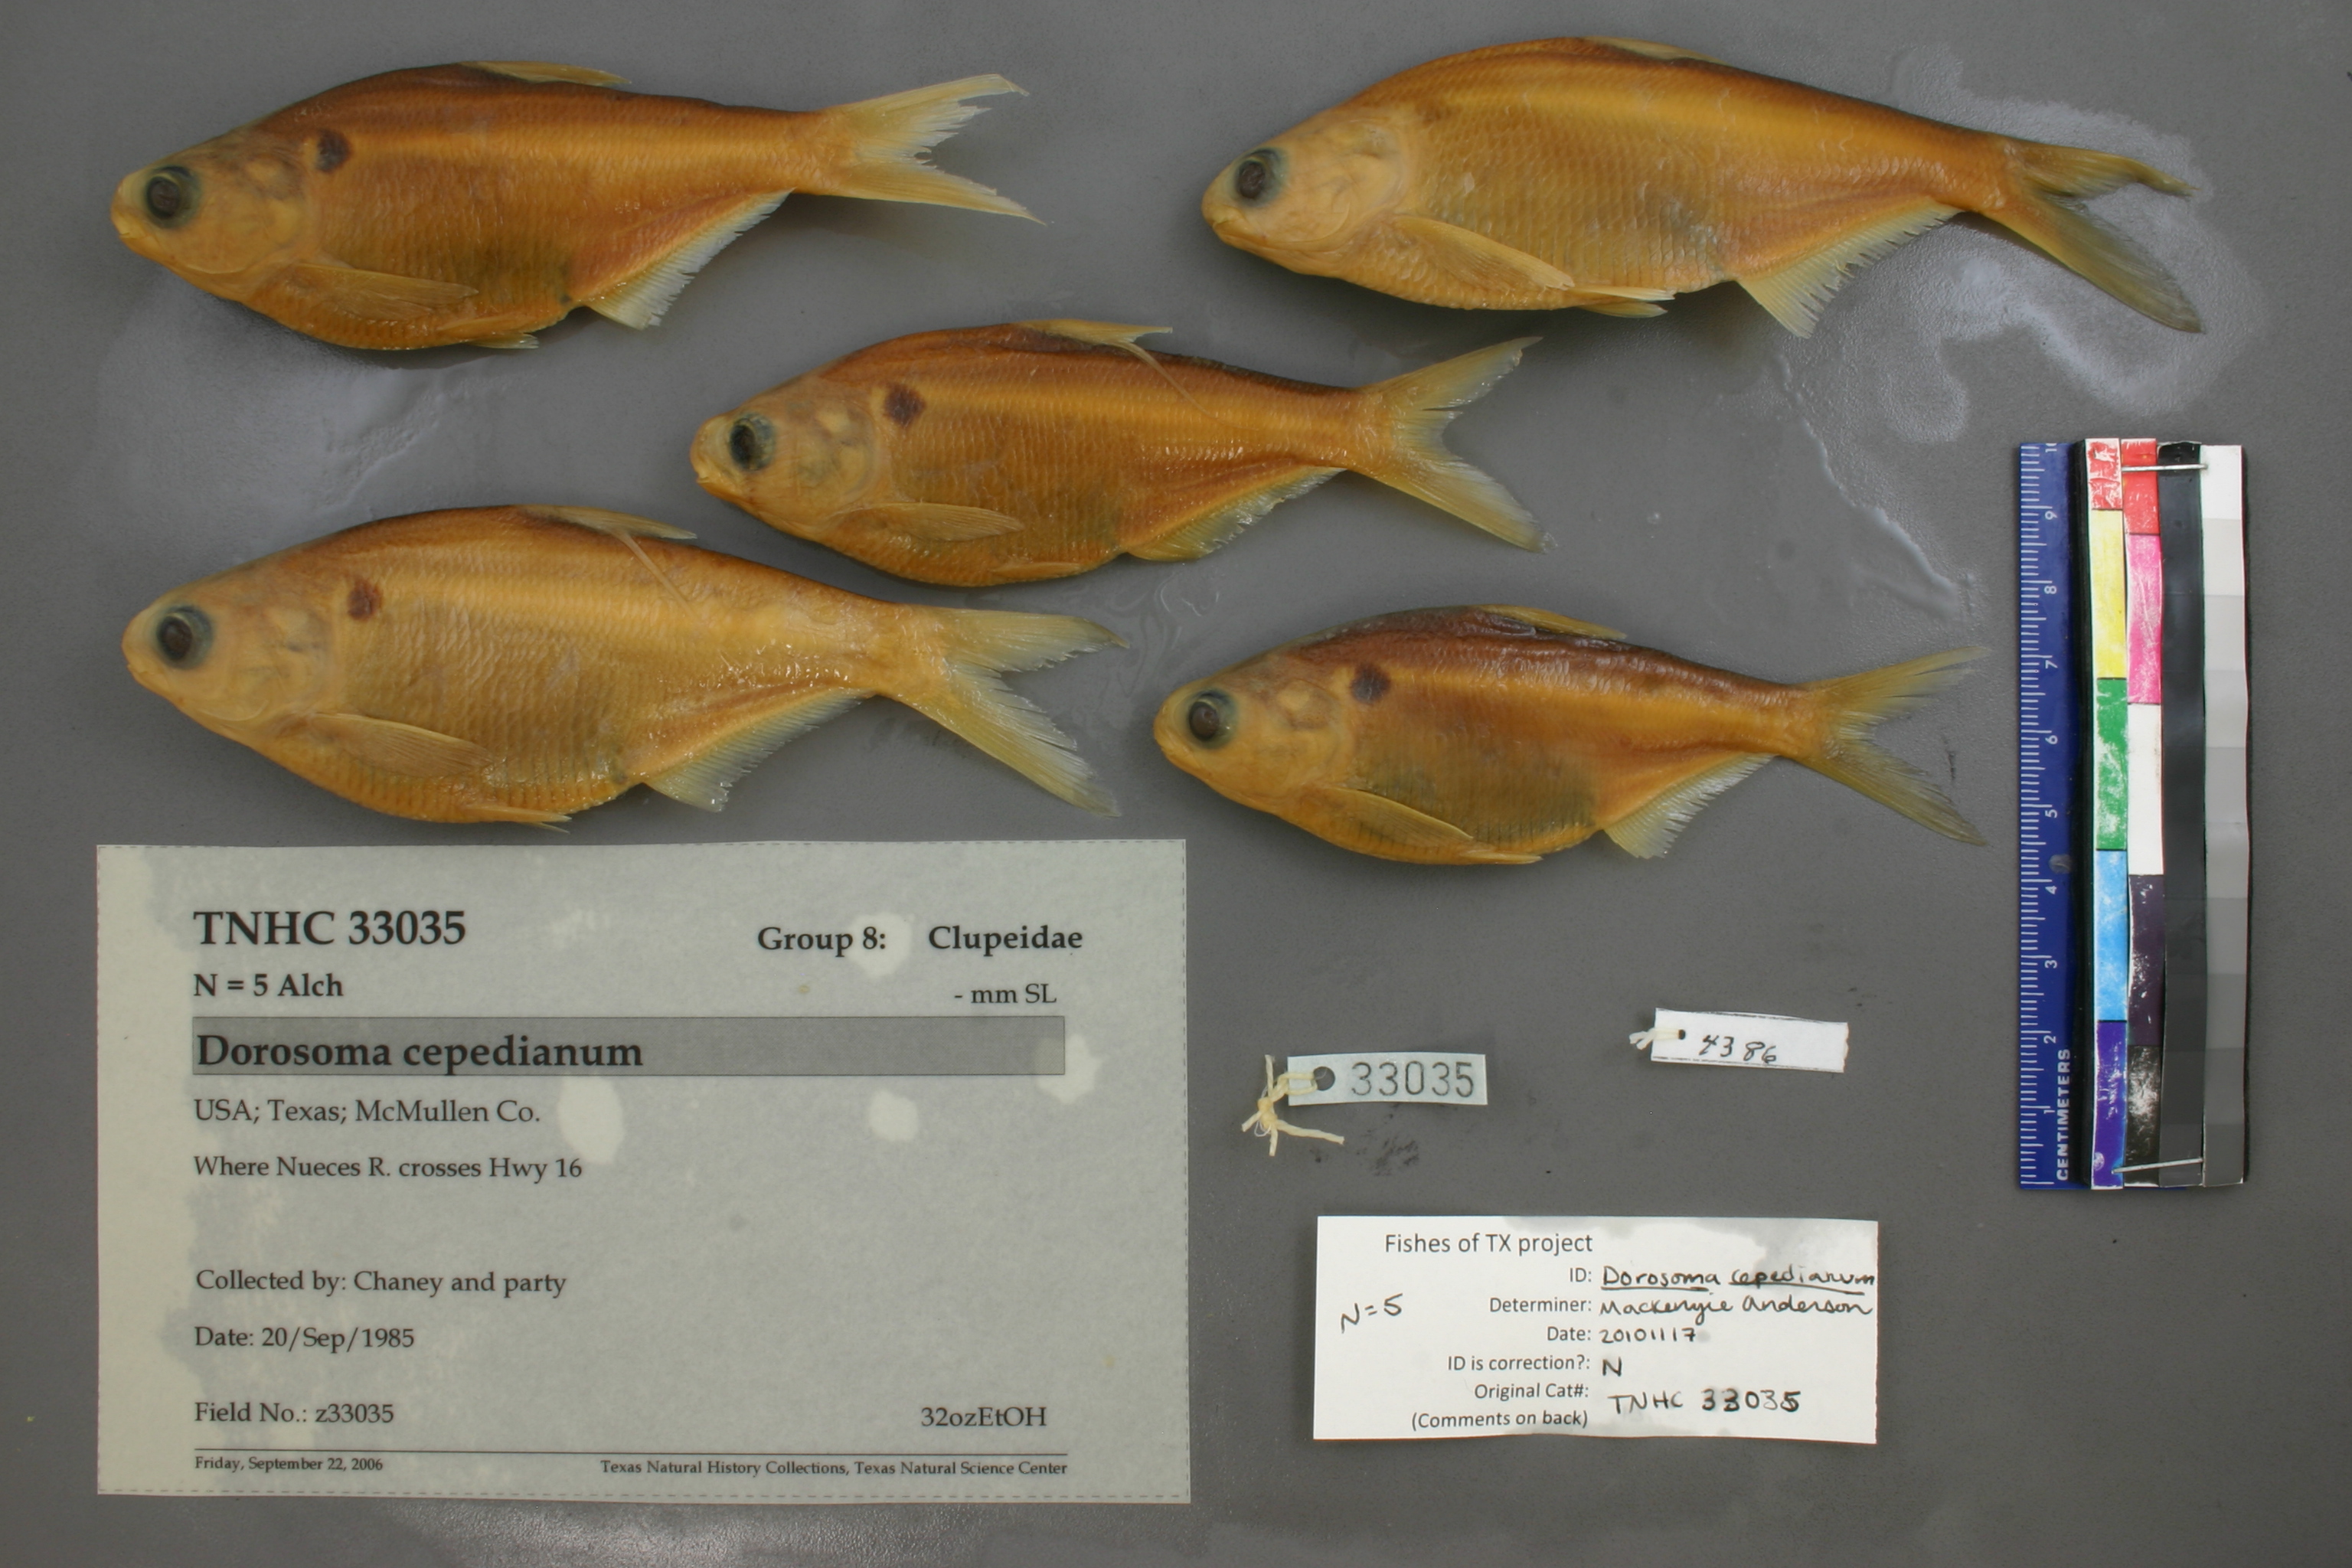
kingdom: Animalia
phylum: Chordata
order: Clupeiformes
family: Clupeidae
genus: Dorosoma
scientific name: Dorosoma cepedianum
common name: Gizzard shad
